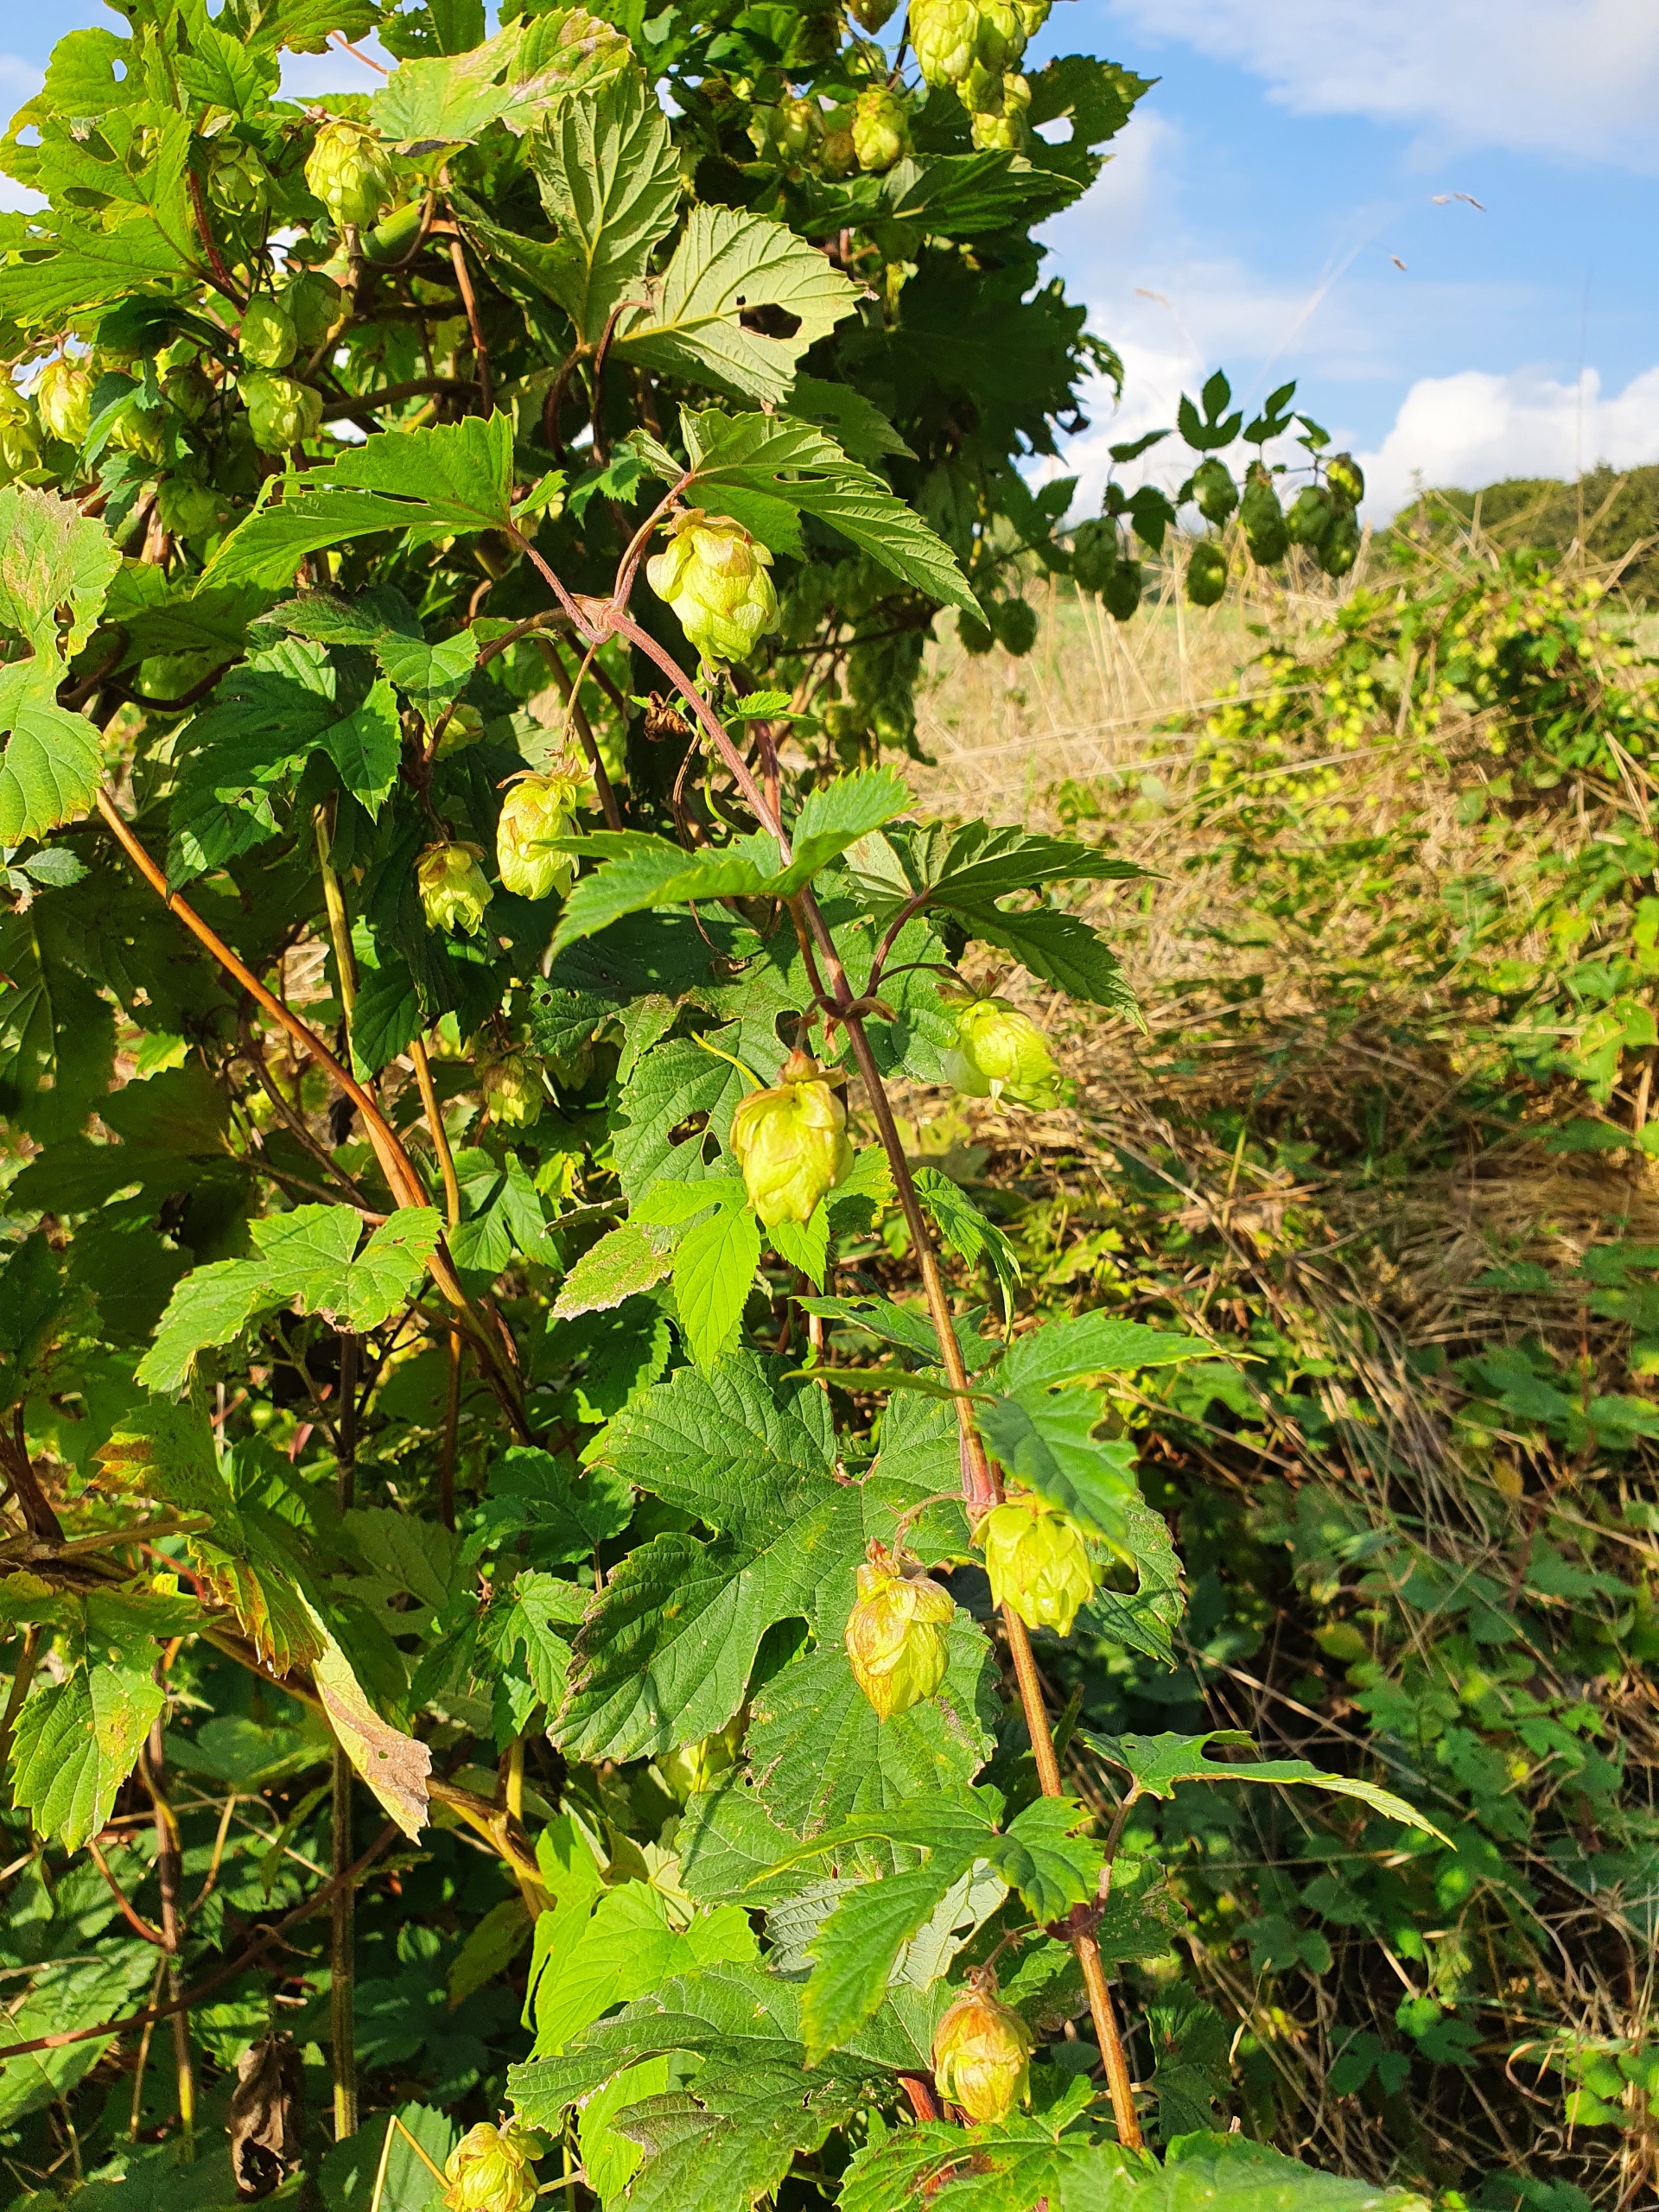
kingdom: Plantae
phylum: Tracheophyta
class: Magnoliopsida
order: Rosales
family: Cannabaceae
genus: Humulus
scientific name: Humulus lupulus
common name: Humle
